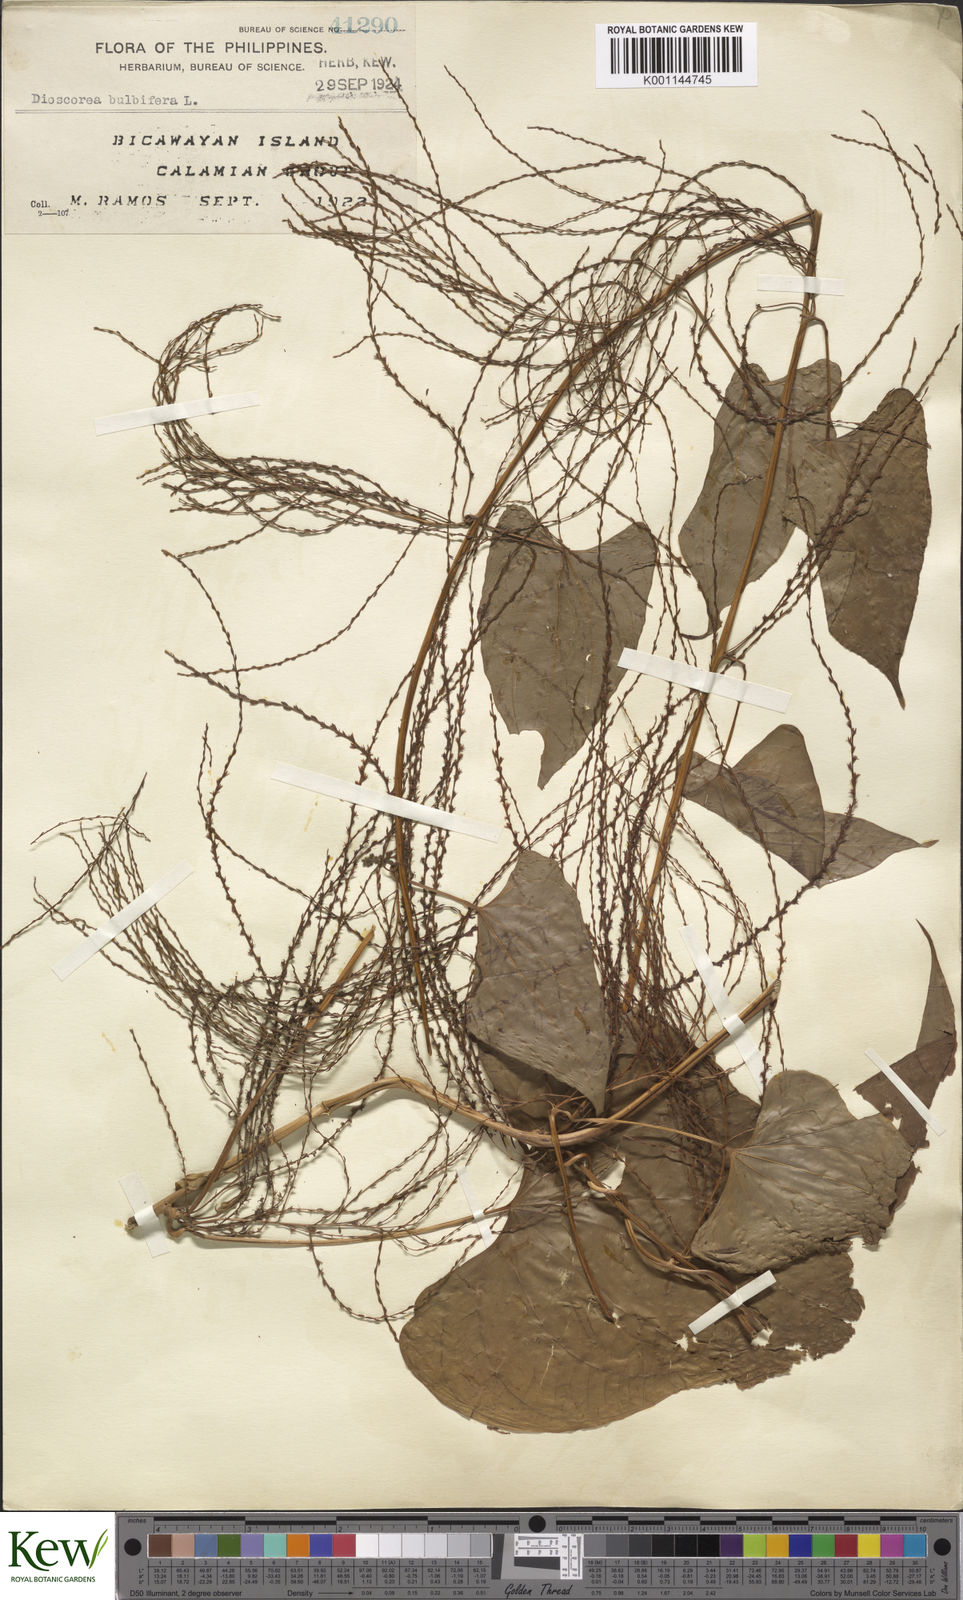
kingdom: Plantae
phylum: Tracheophyta
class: Liliopsida
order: Dioscoreales
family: Dioscoreaceae
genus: Dioscorea
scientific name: Dioscorea bulbifera
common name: Air yam
